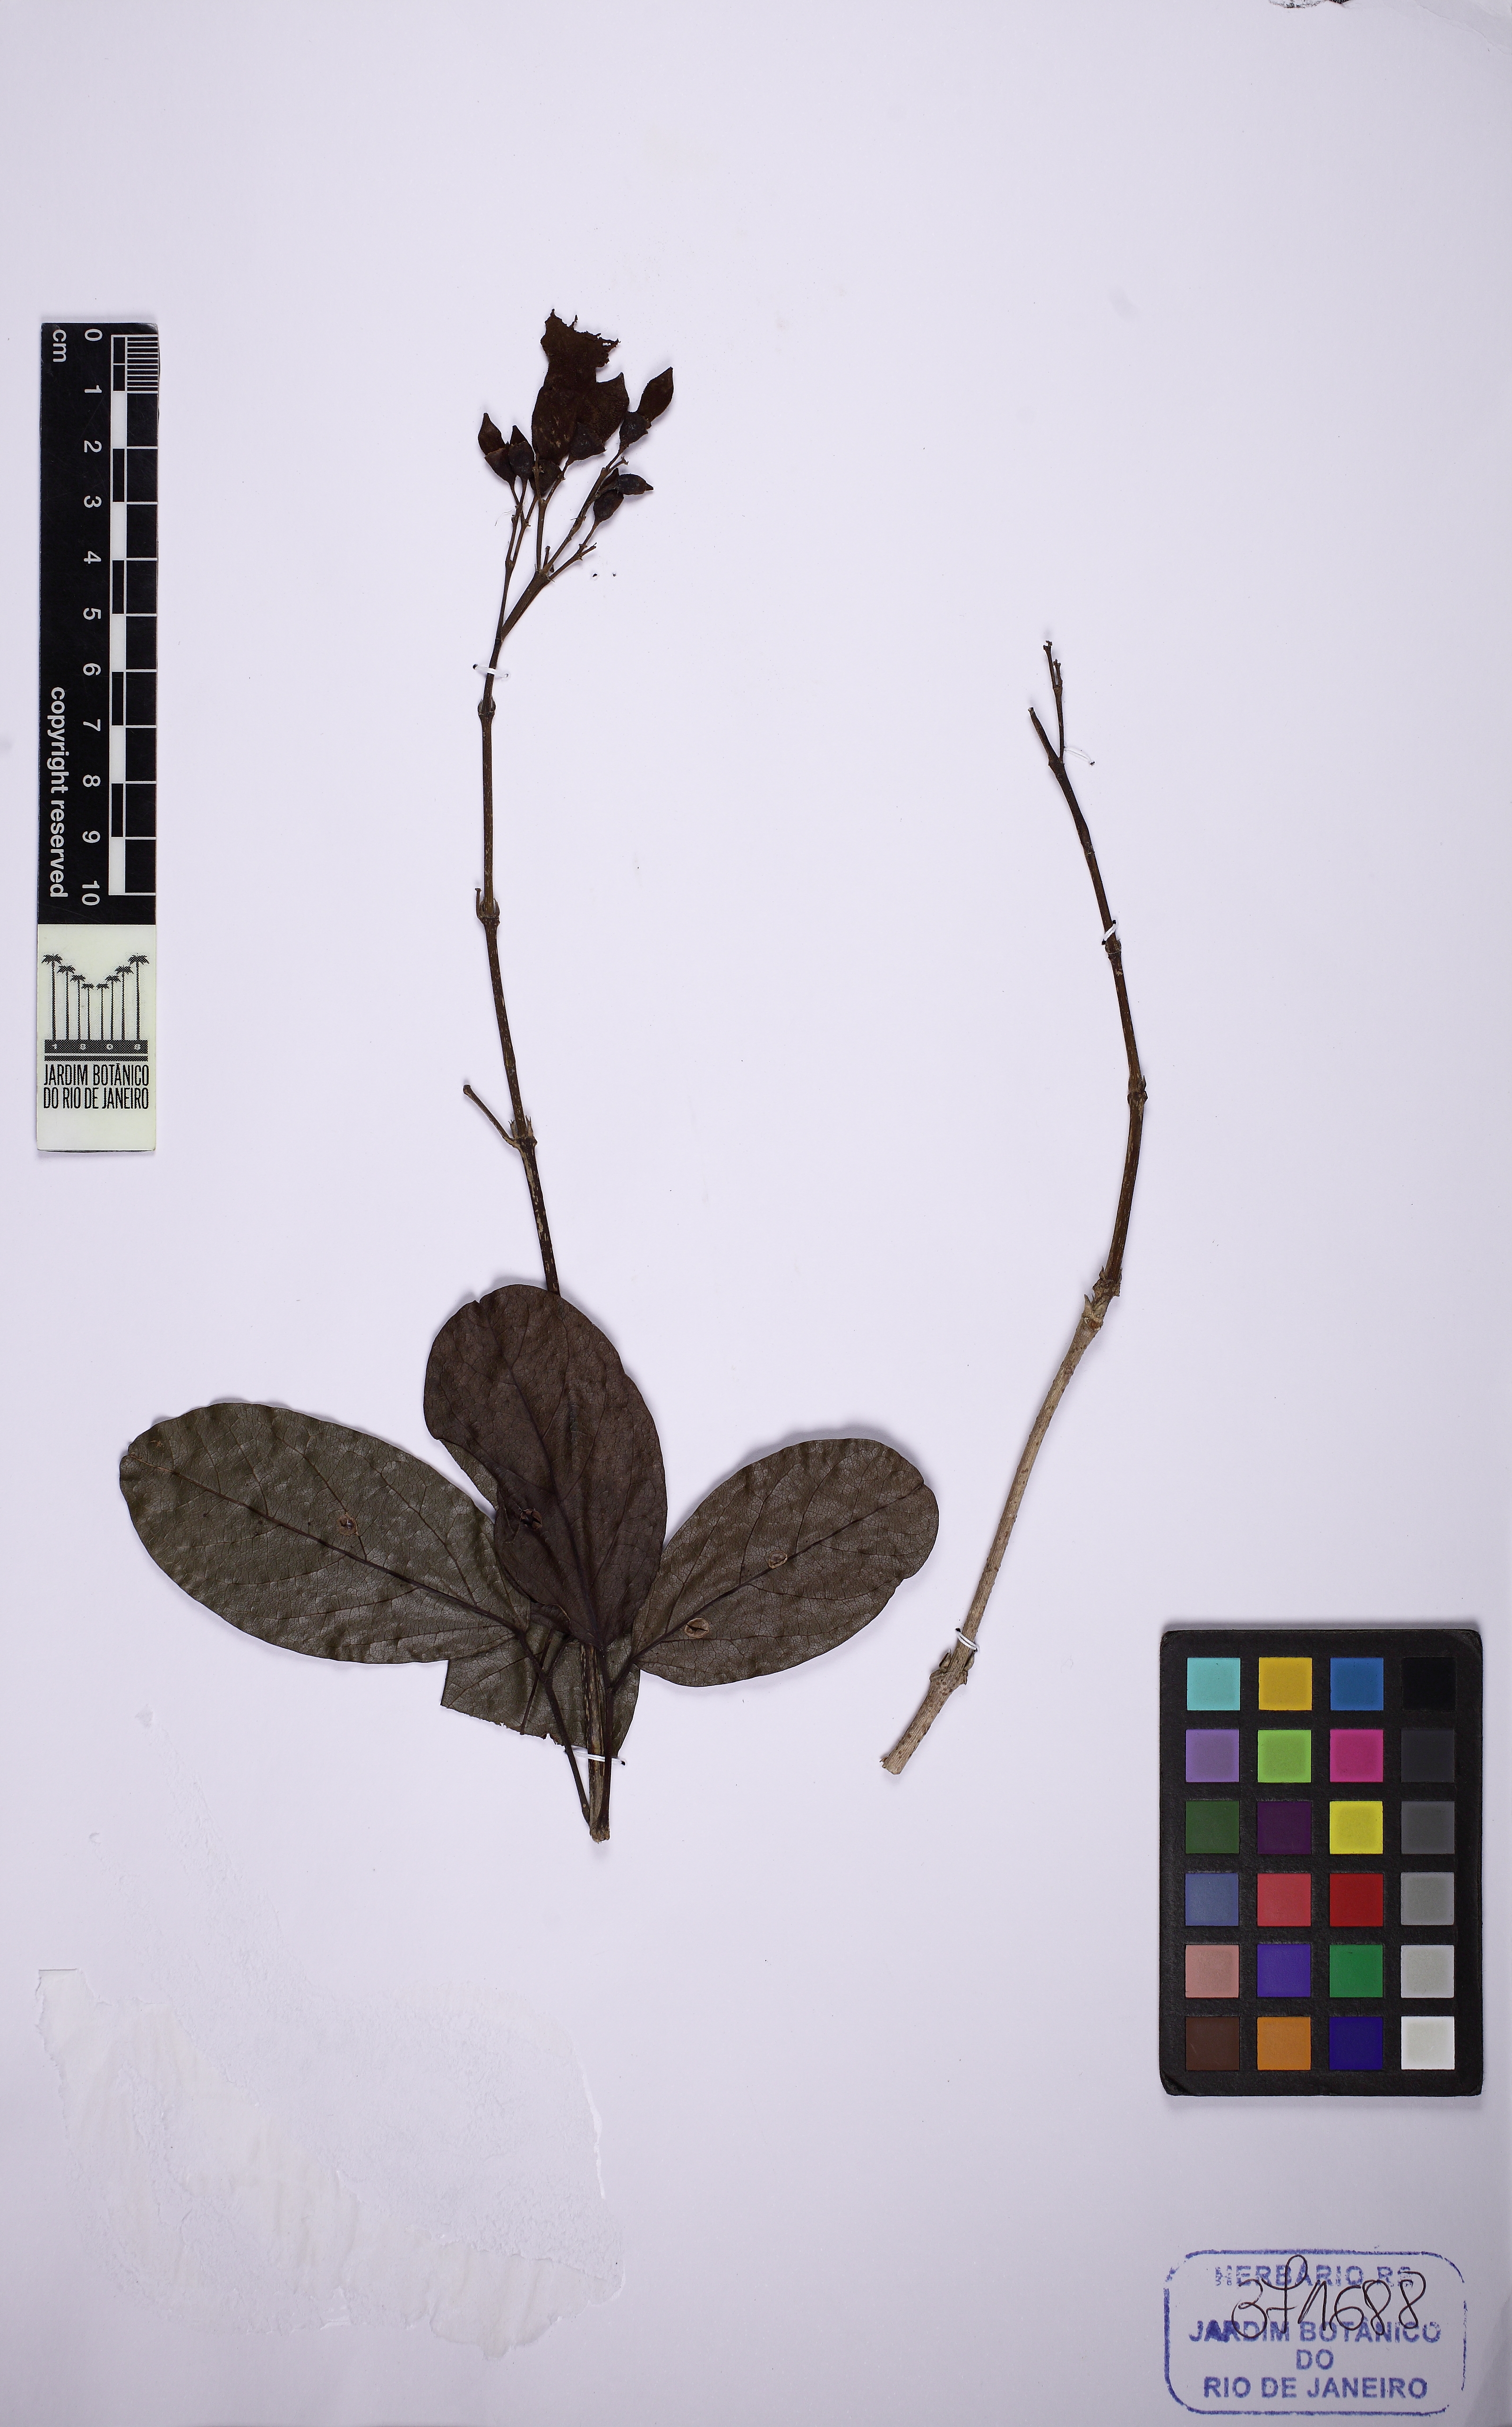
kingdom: Plantae
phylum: Tracheophyta
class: Magnoliopsida
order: Lamiales
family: Bignoniaceae
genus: Tanaecium
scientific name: Tanaecium pyramidatum
